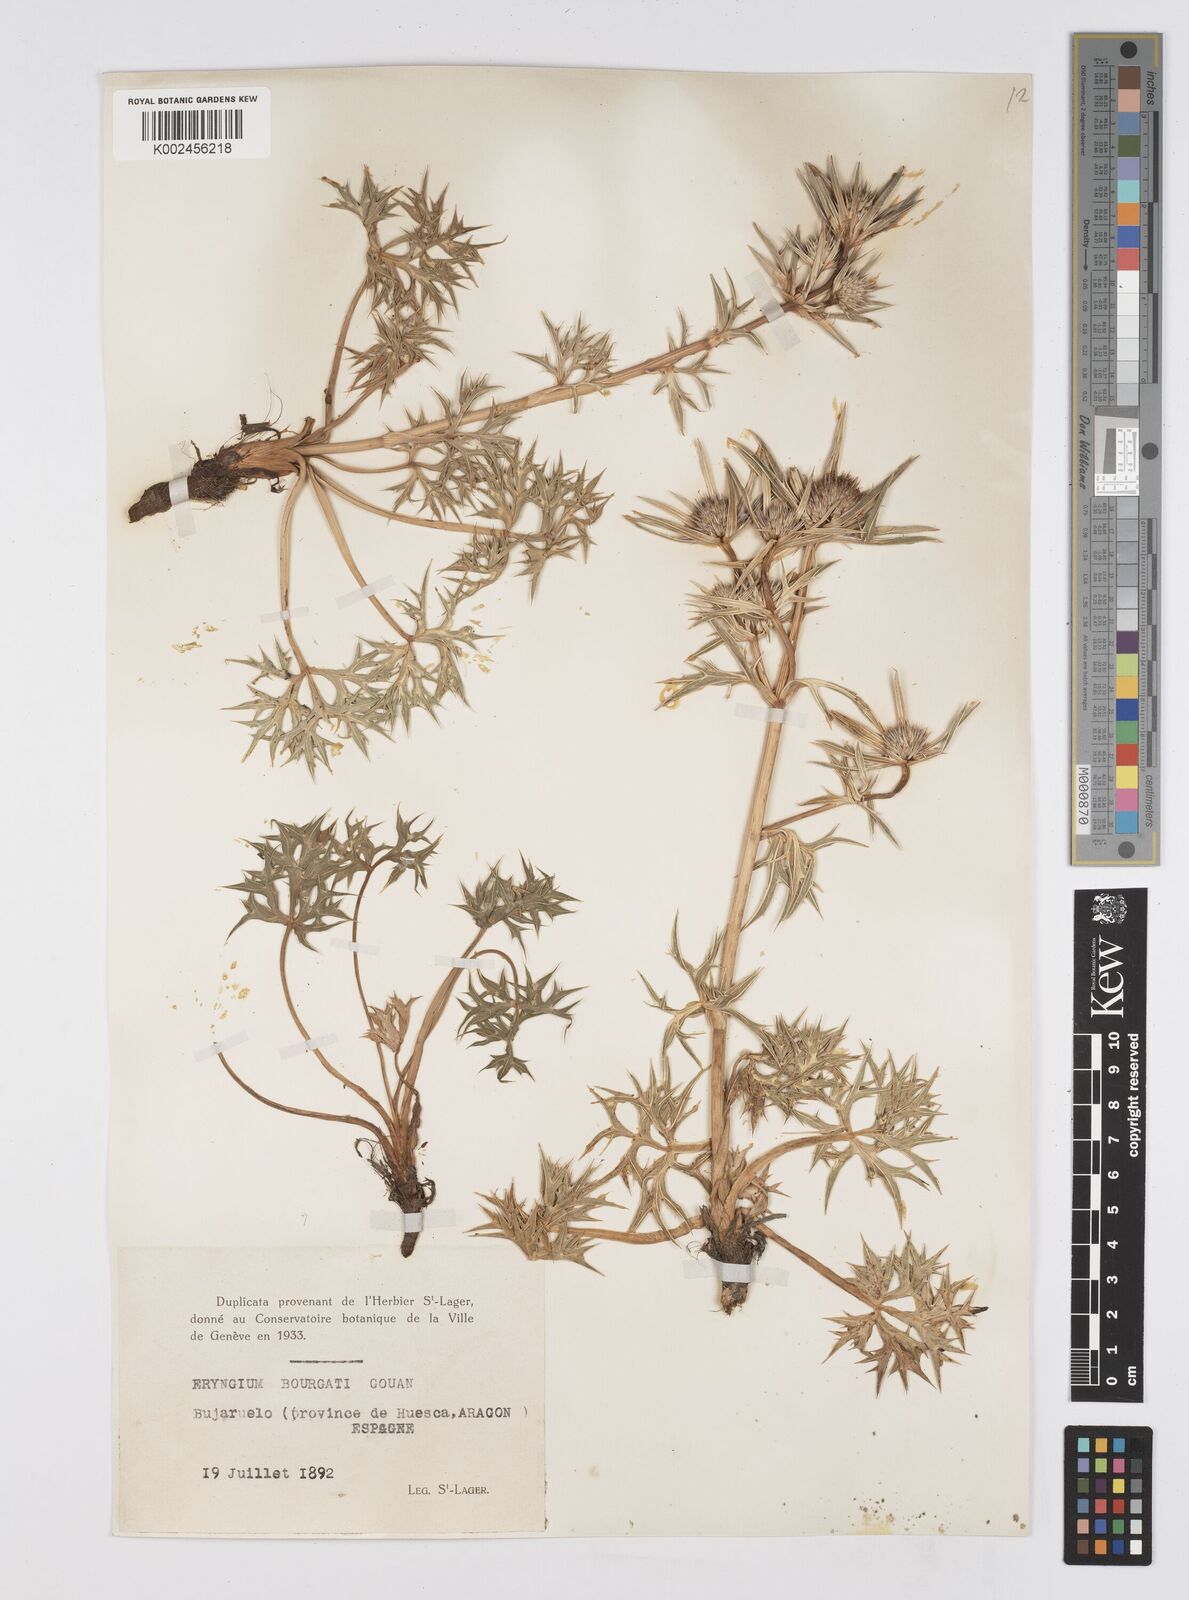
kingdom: Plantae
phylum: Tracheophyta
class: Magnoliopsida
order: Apiales
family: Apiaceae
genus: Eryngium
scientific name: Eryngium bourgatii
